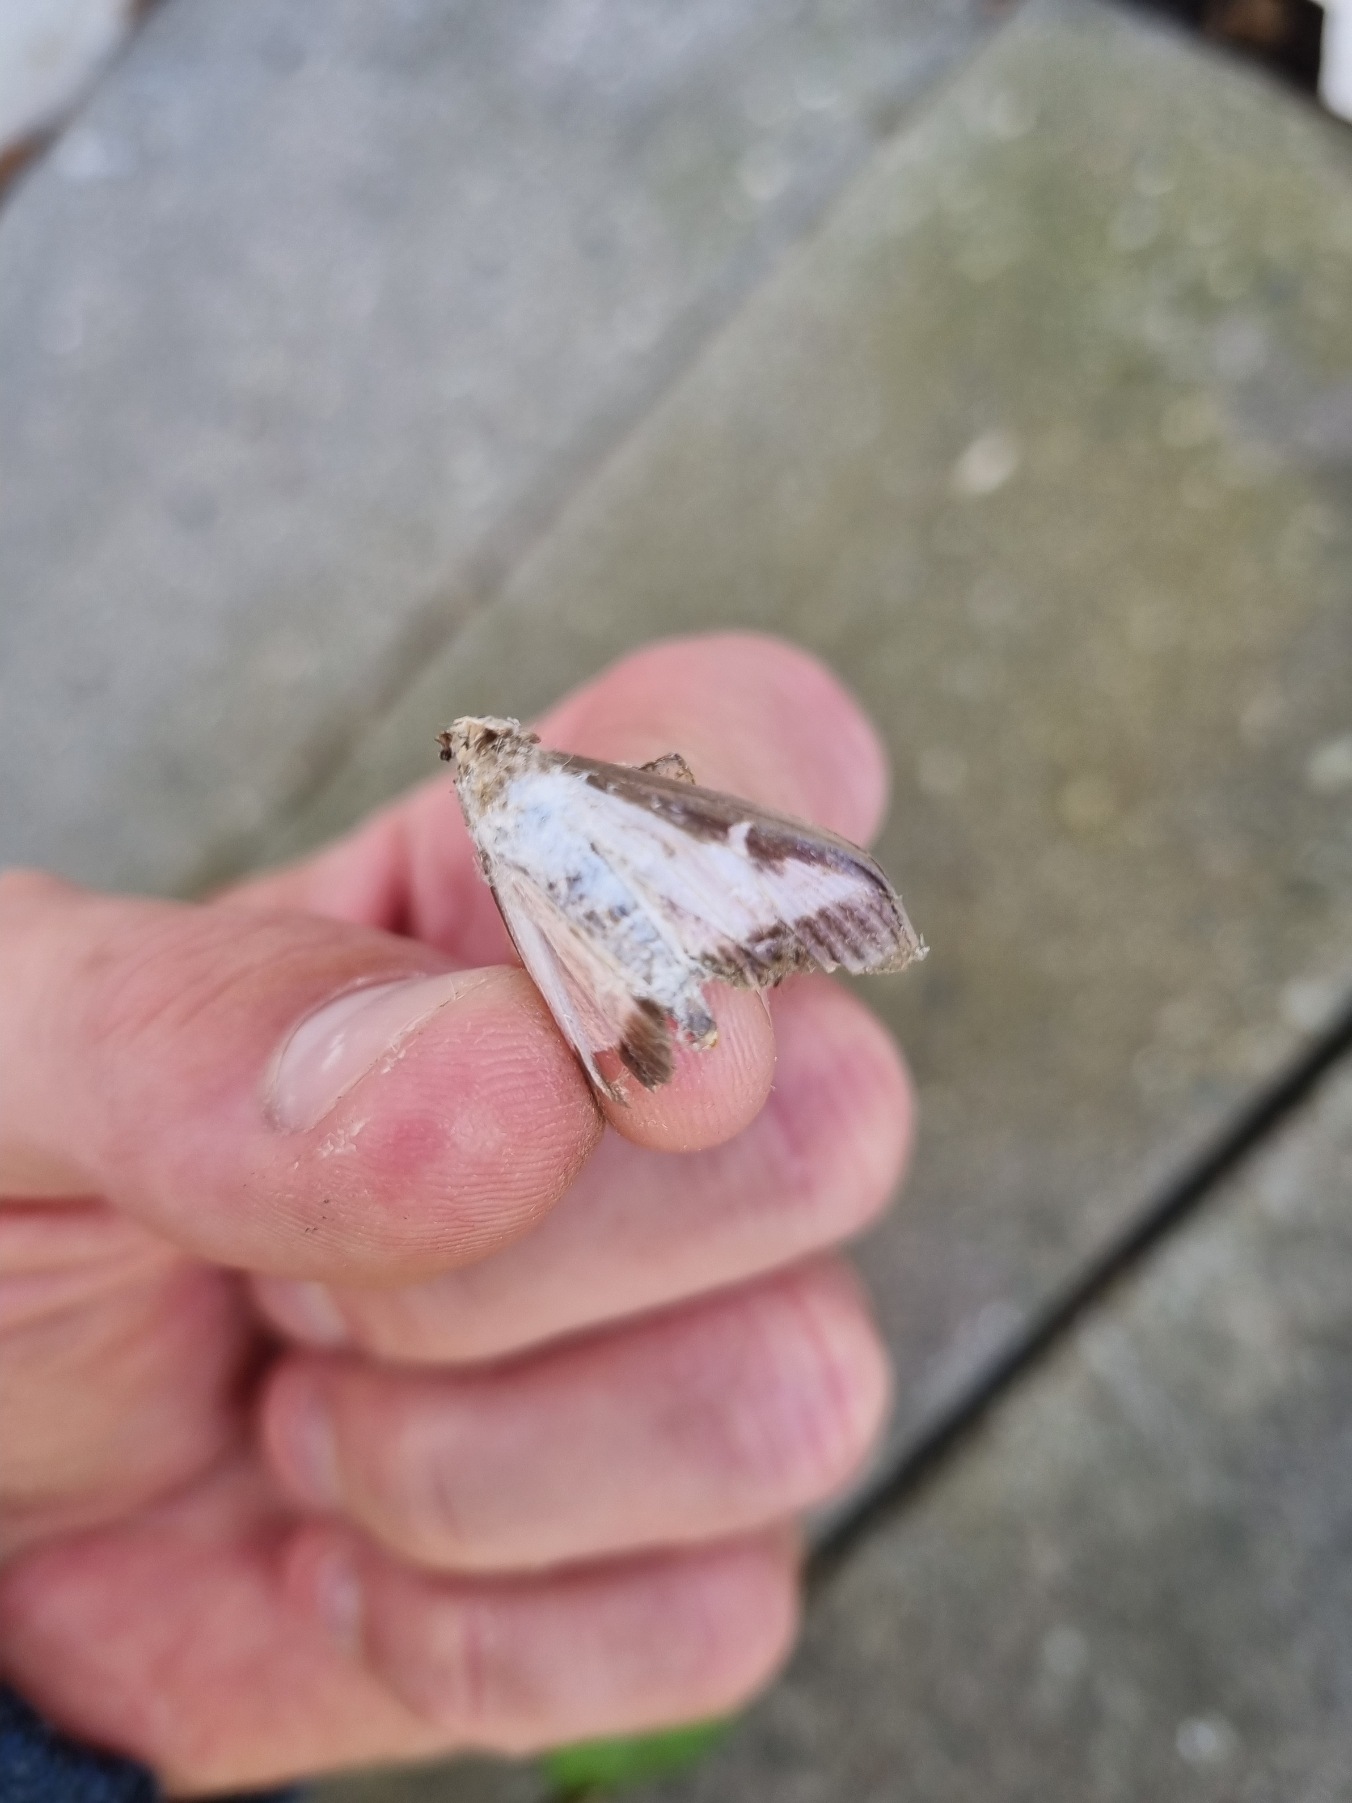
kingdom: Animalia
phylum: Arthropoda
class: Insecta
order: Lepidoptera
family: Crambidae
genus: Cydalima
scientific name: Cydalima perspectalis
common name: Buksbomhalvmøl
